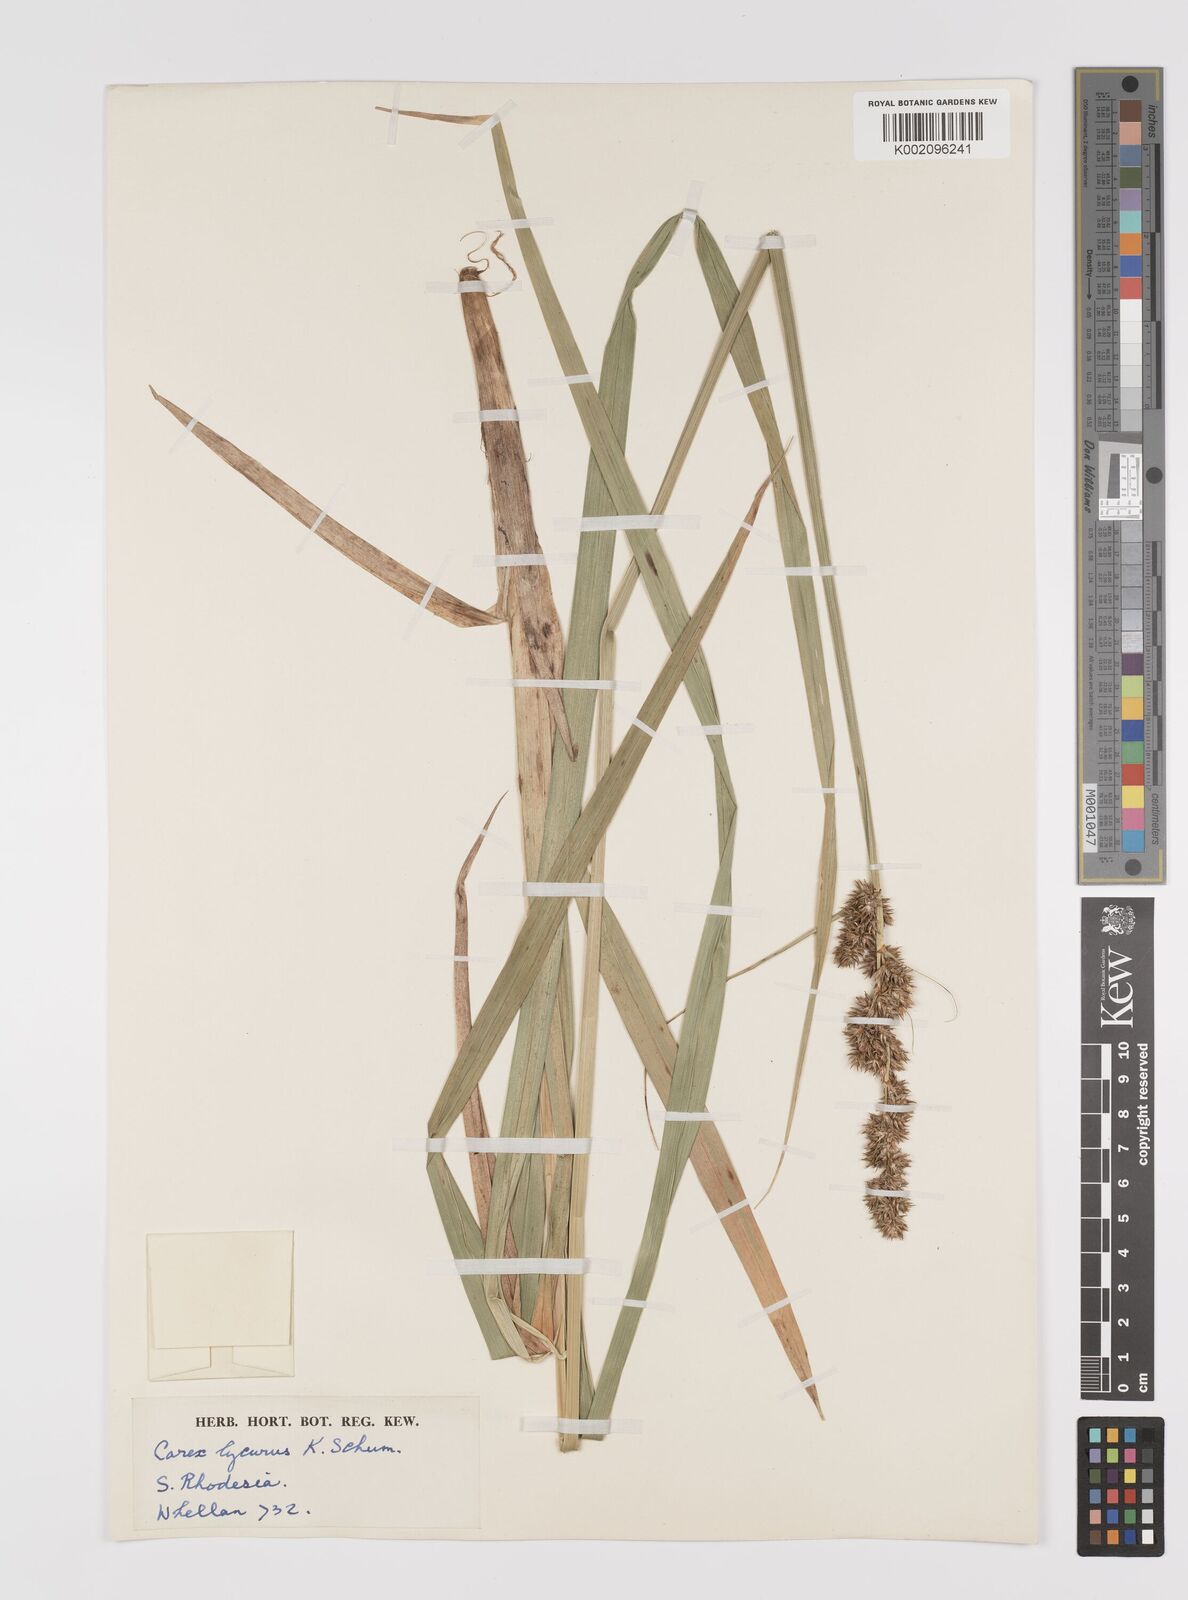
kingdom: Plantae
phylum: Tracheophyta
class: Liliopsida
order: Poales
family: Cyperaceae
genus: Carex
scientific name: Carex lycurus
